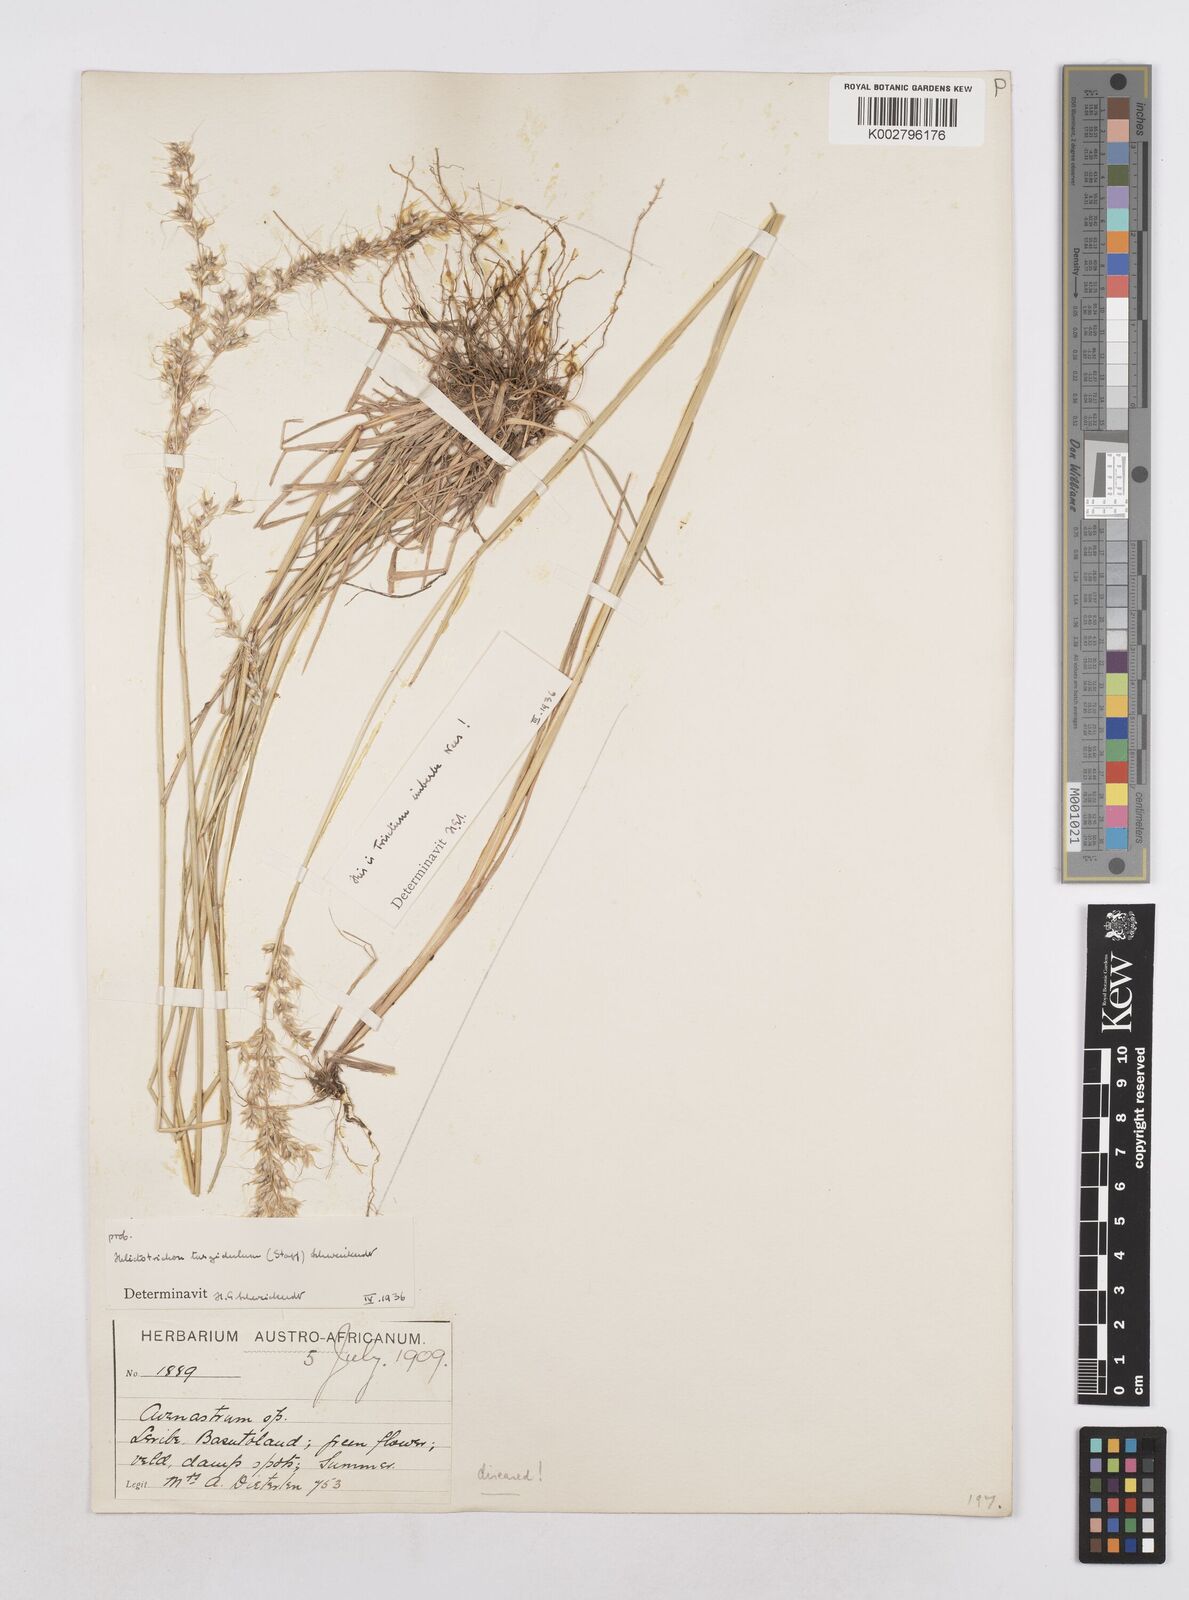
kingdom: Plantae
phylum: Tracheophyta
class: Liliopsida
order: Poales
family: Poaceae
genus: Trisetopsis
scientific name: Trisetopsis imberbis
